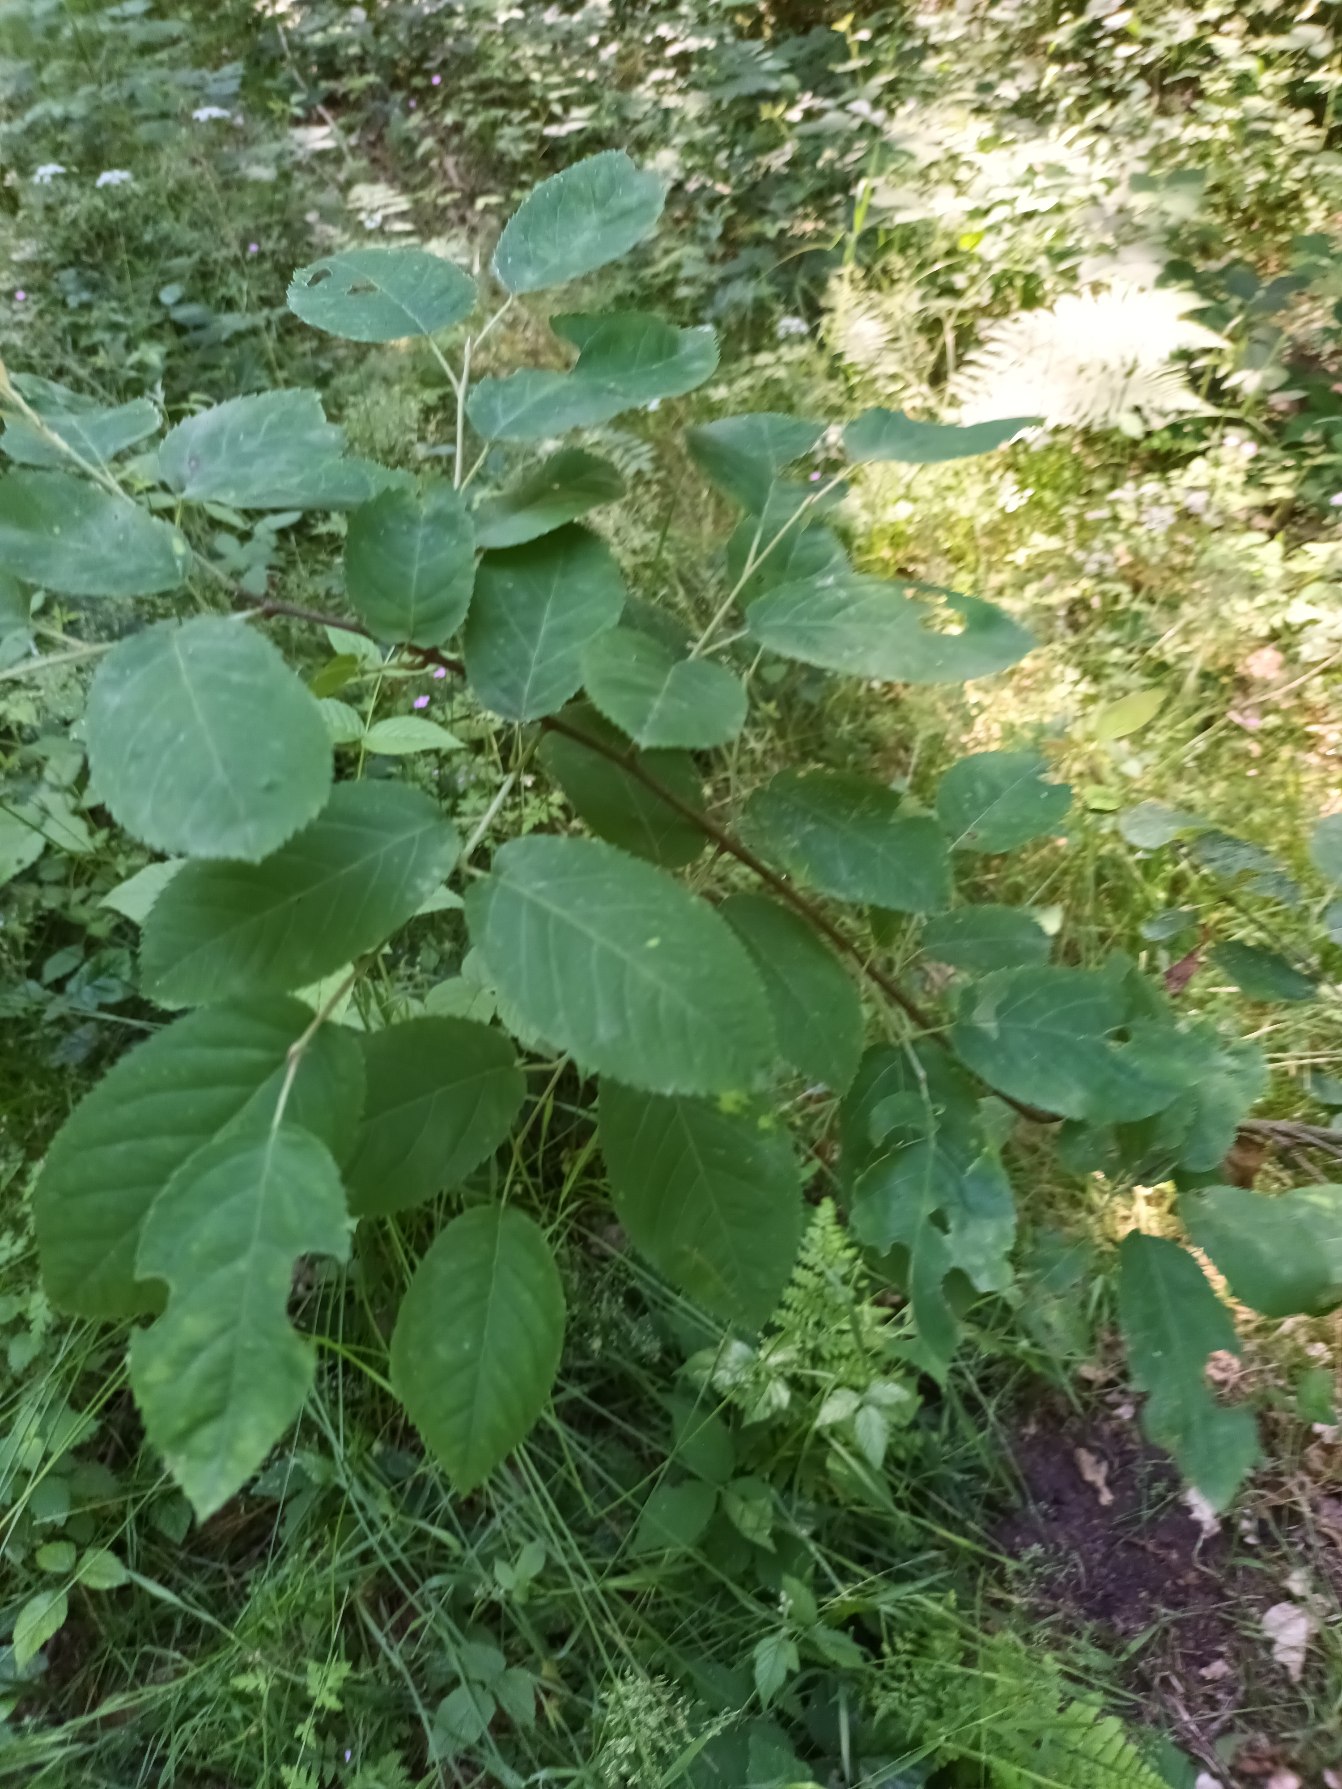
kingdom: Plantae
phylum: Tracheophyta
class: Magnoliopsida
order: Rosales
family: Rosaceae
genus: Amelanchier
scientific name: Amelanchier lamarckii
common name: Bærmispel
